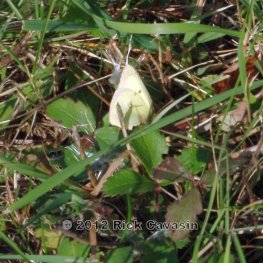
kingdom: Animalia
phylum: Arthropoda
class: Insecta
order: Lepidoptera
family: Pieridae
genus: Colias
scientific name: Colias philodice
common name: Clouded Sulphur
